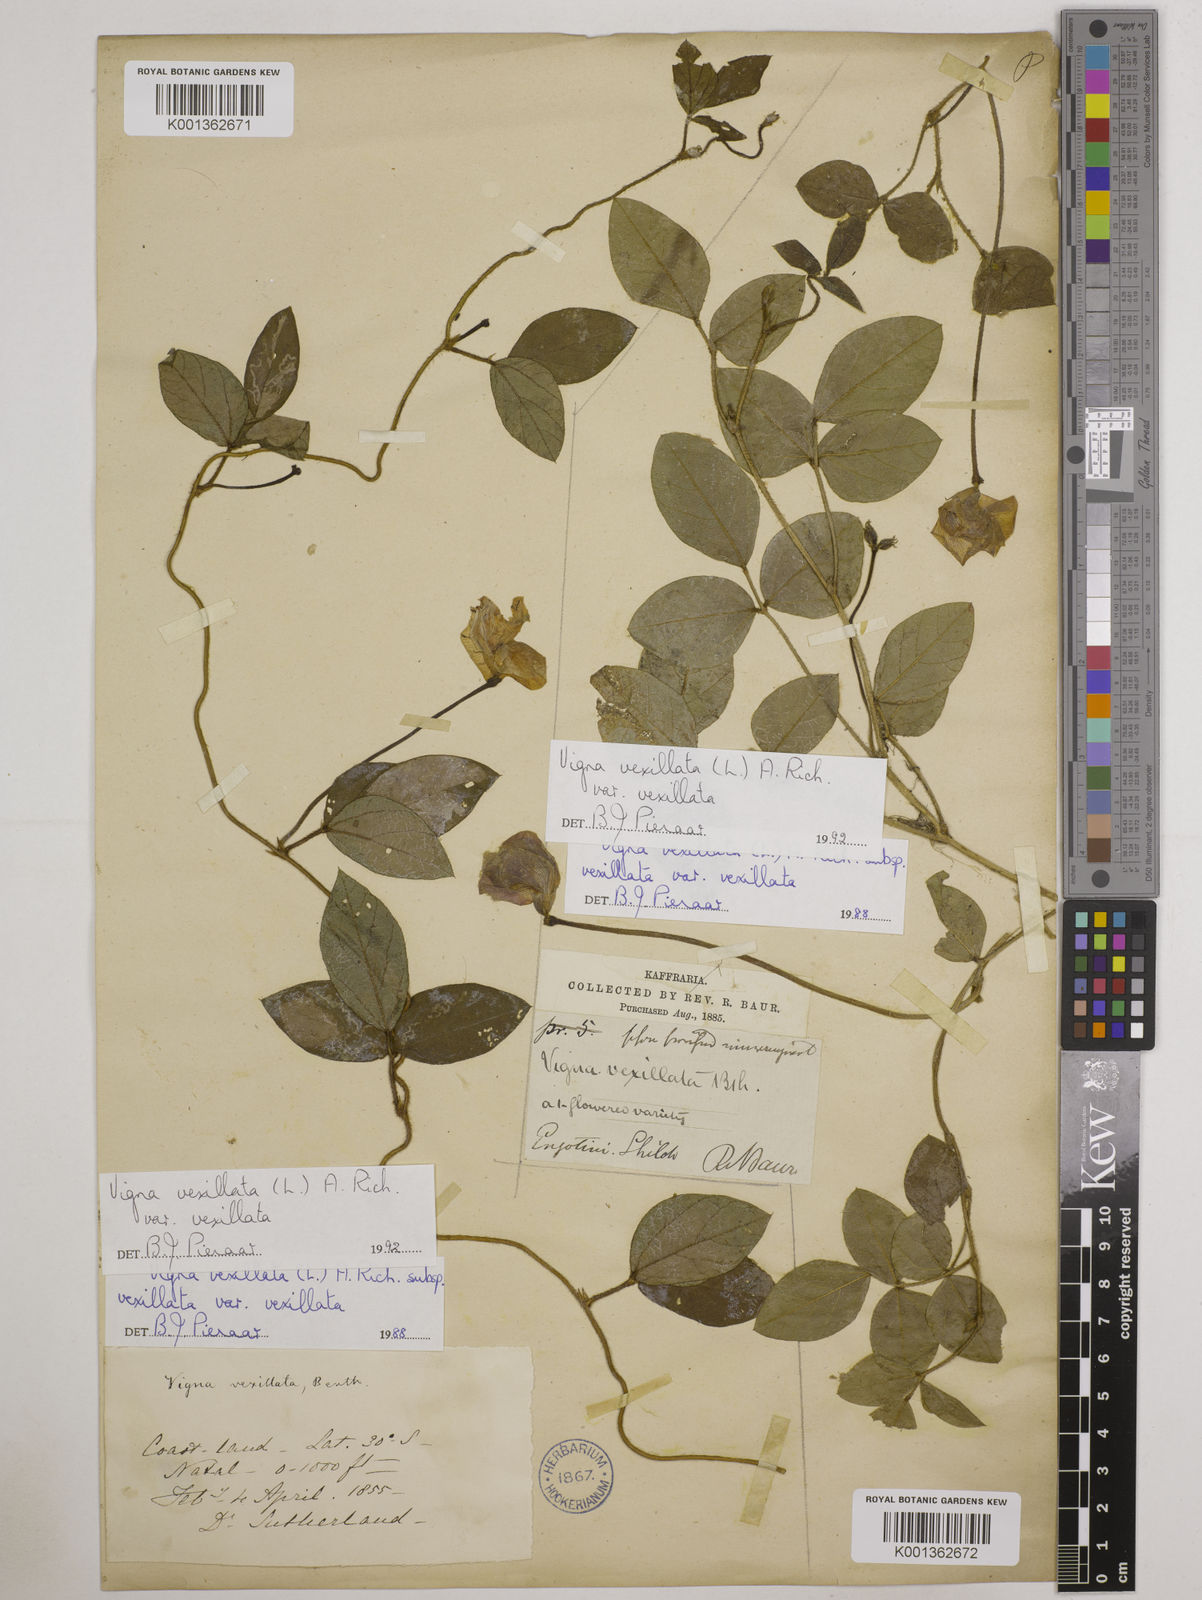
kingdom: Plantae
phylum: Tracheophyta
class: Magnoliopsida
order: Fabales
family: Fabaceae
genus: Vigna
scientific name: Vigna
